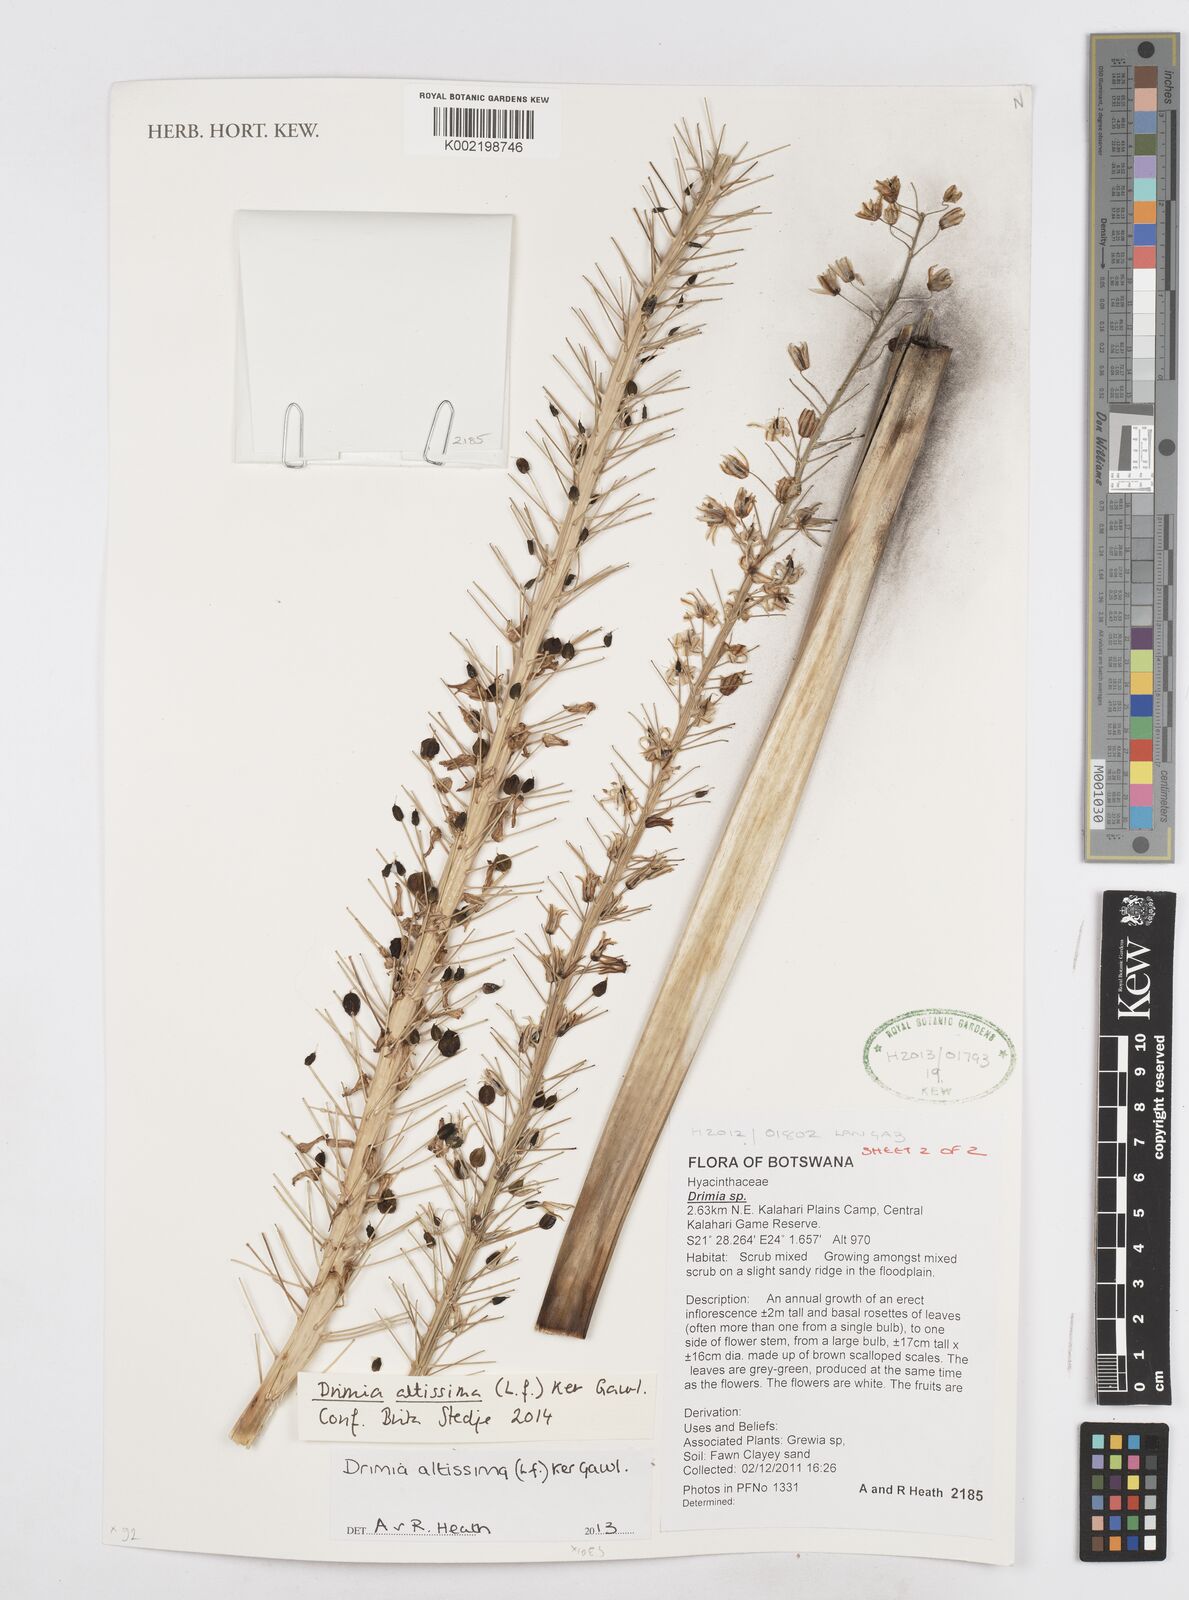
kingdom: Plantae
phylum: Tracheophyta
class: Liliopsida
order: Asparagales
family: Asparagaceae
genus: Drimia
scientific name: Drimia altissima
